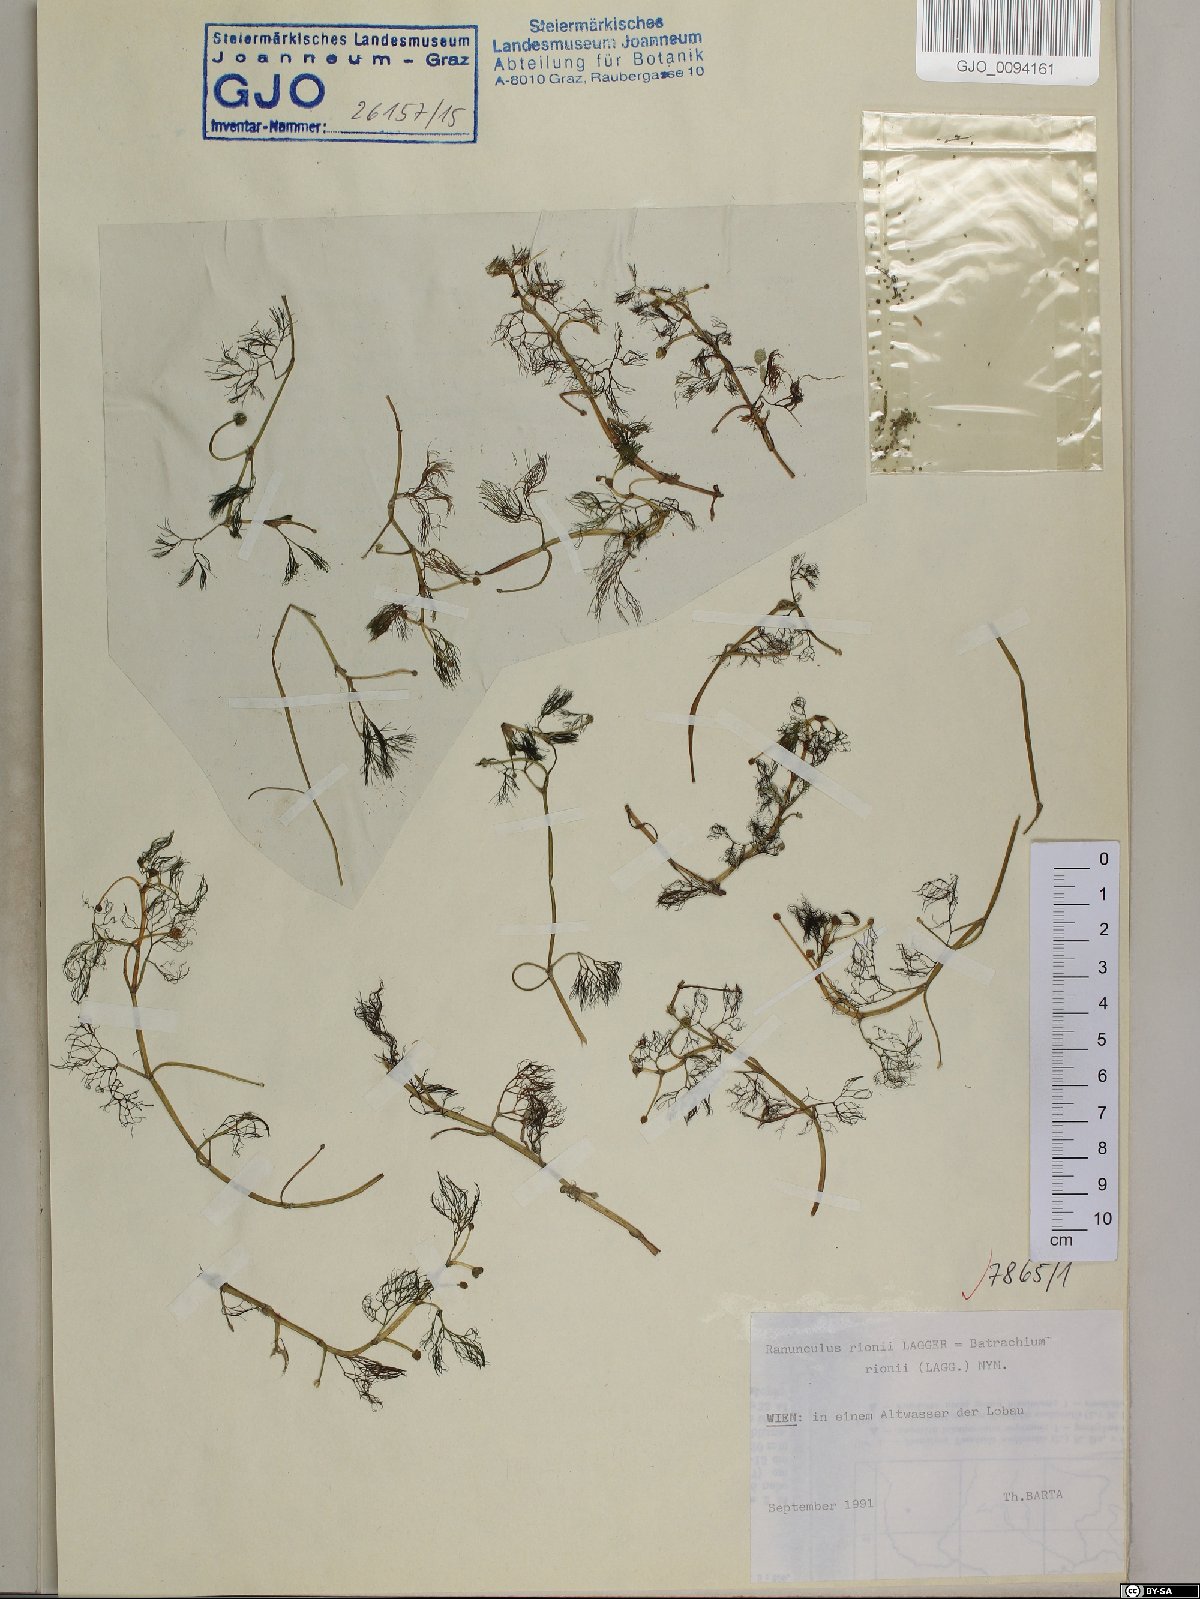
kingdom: Plantae
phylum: Tracheophyta
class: Magnoliopsida
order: Ranunculales
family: Ranunculaceae
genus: Ranunculus
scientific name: Ranunculus rionii
